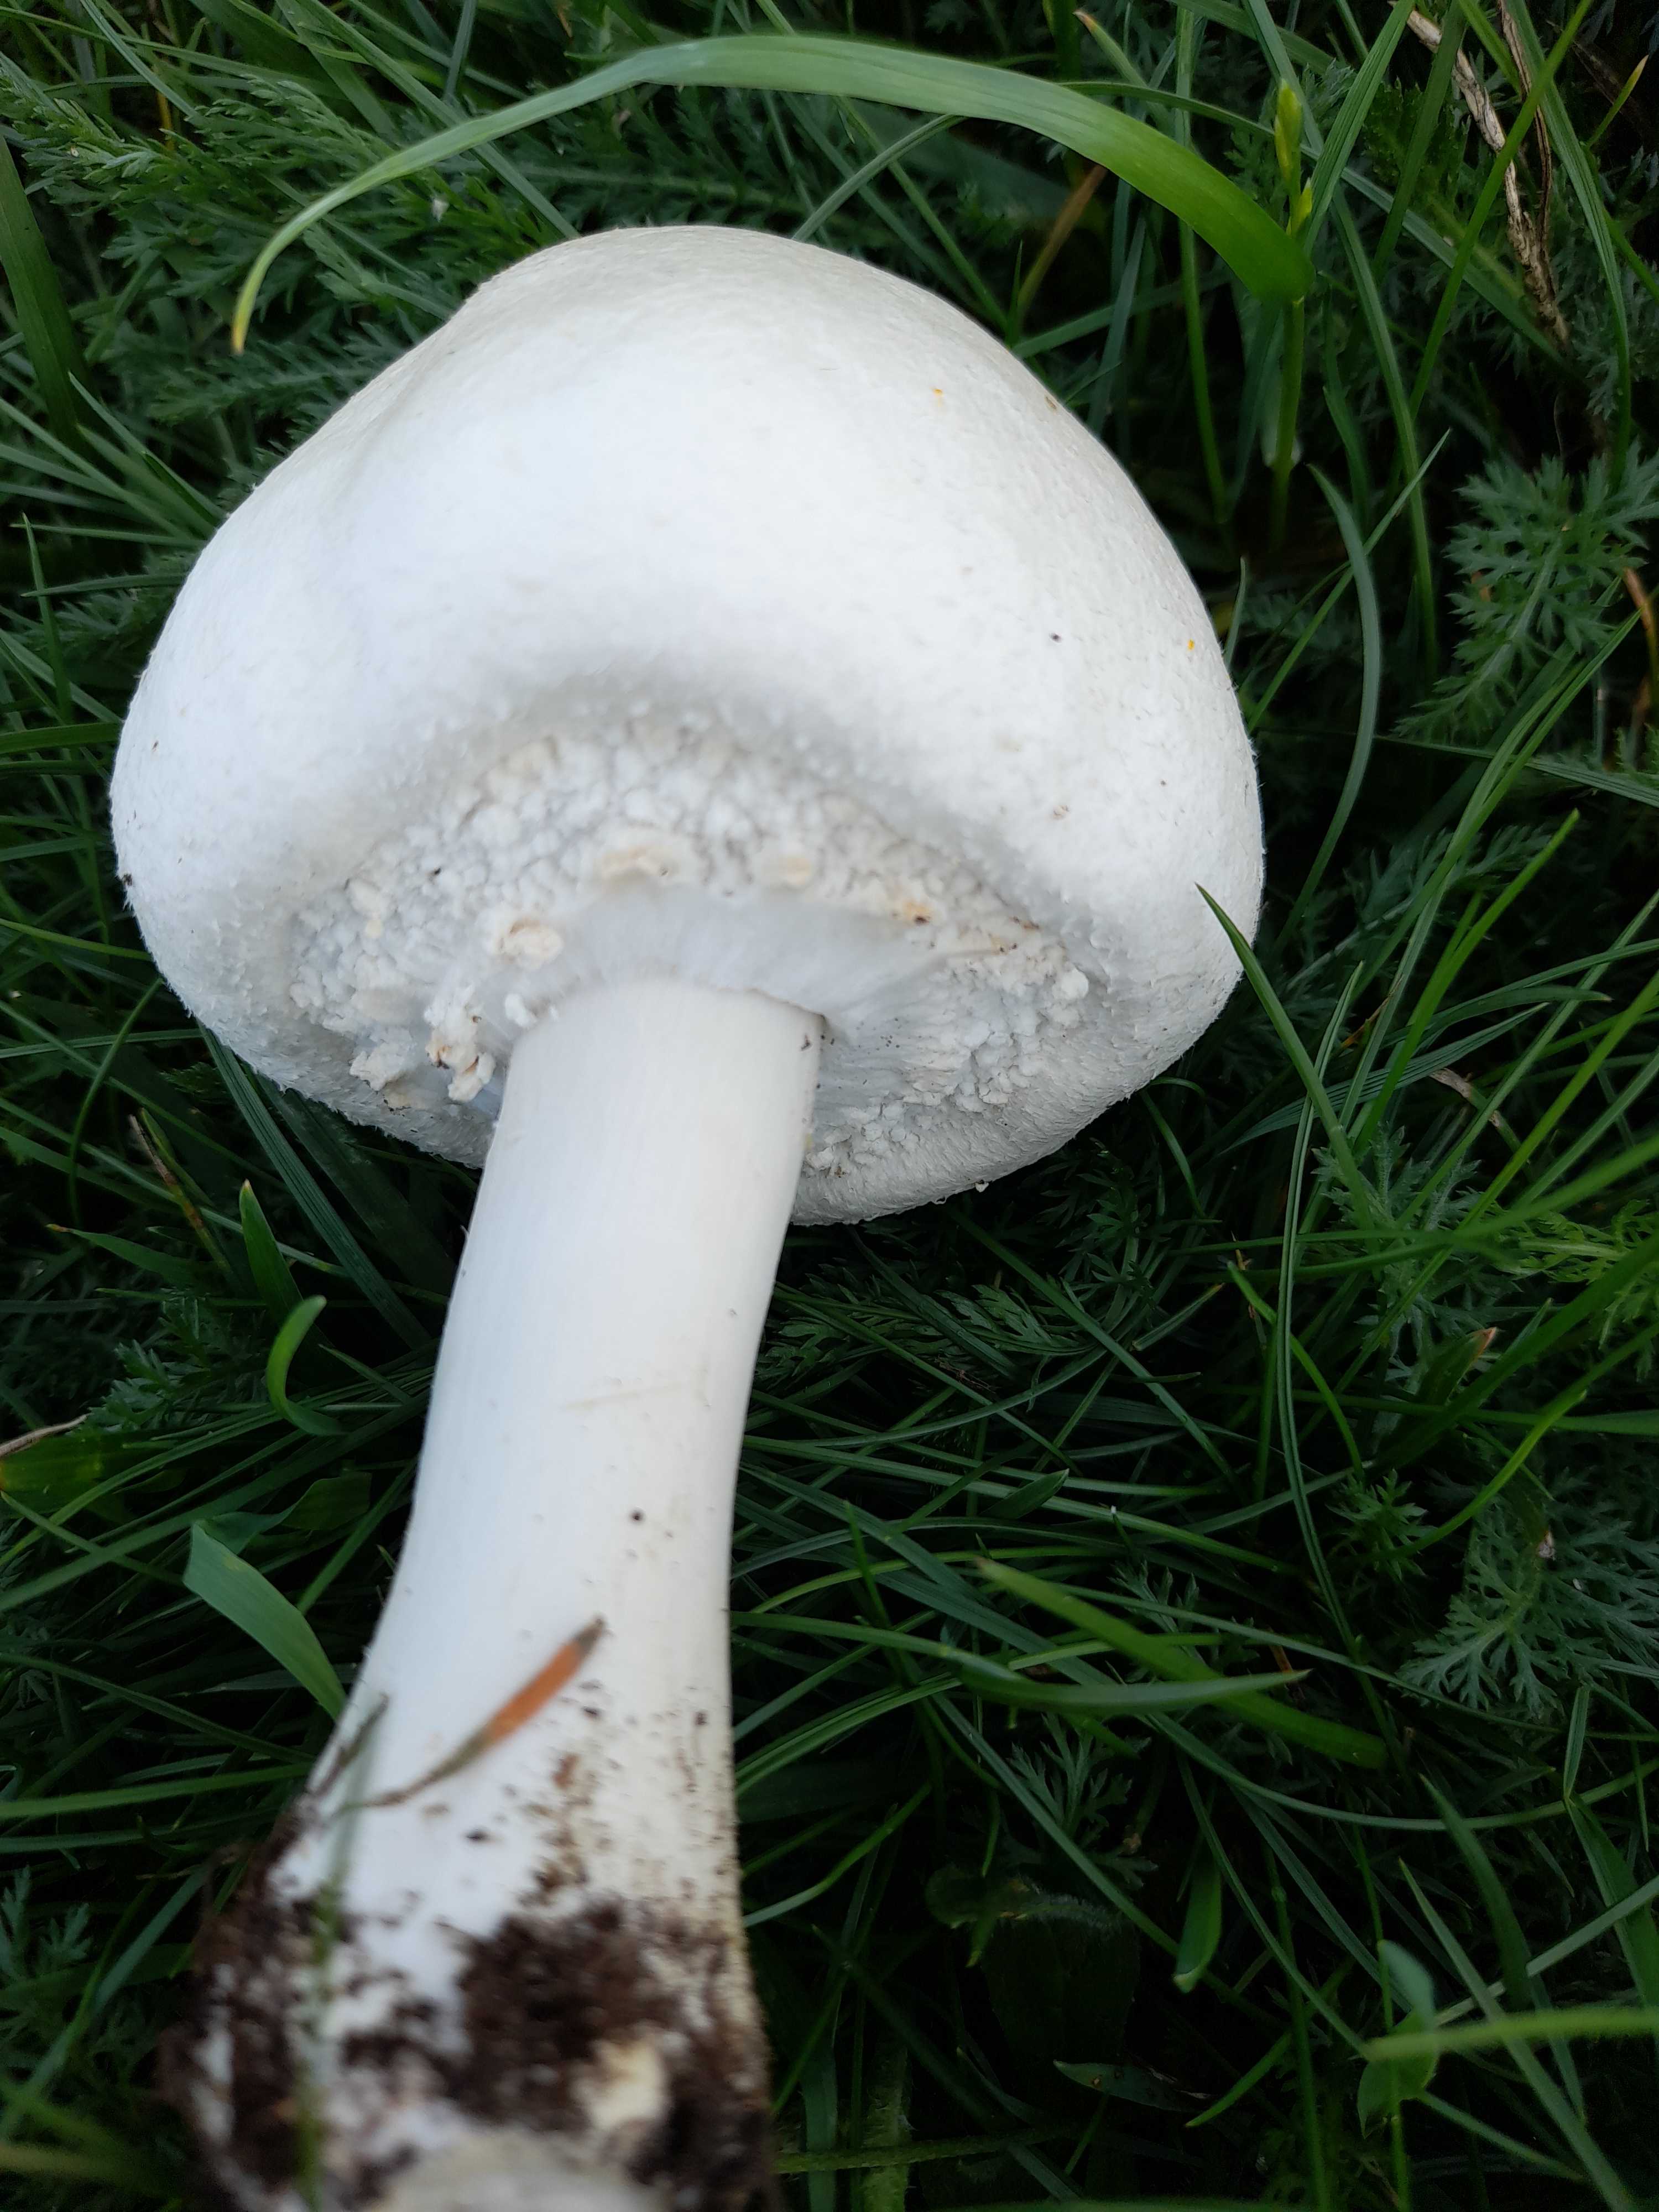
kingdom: Fungi
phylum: Basidiomycota
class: Agaricomycetes
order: Agaricales
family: Agaricaceae
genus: Agaricus
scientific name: Agaricus arvensis
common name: ager-champignon
